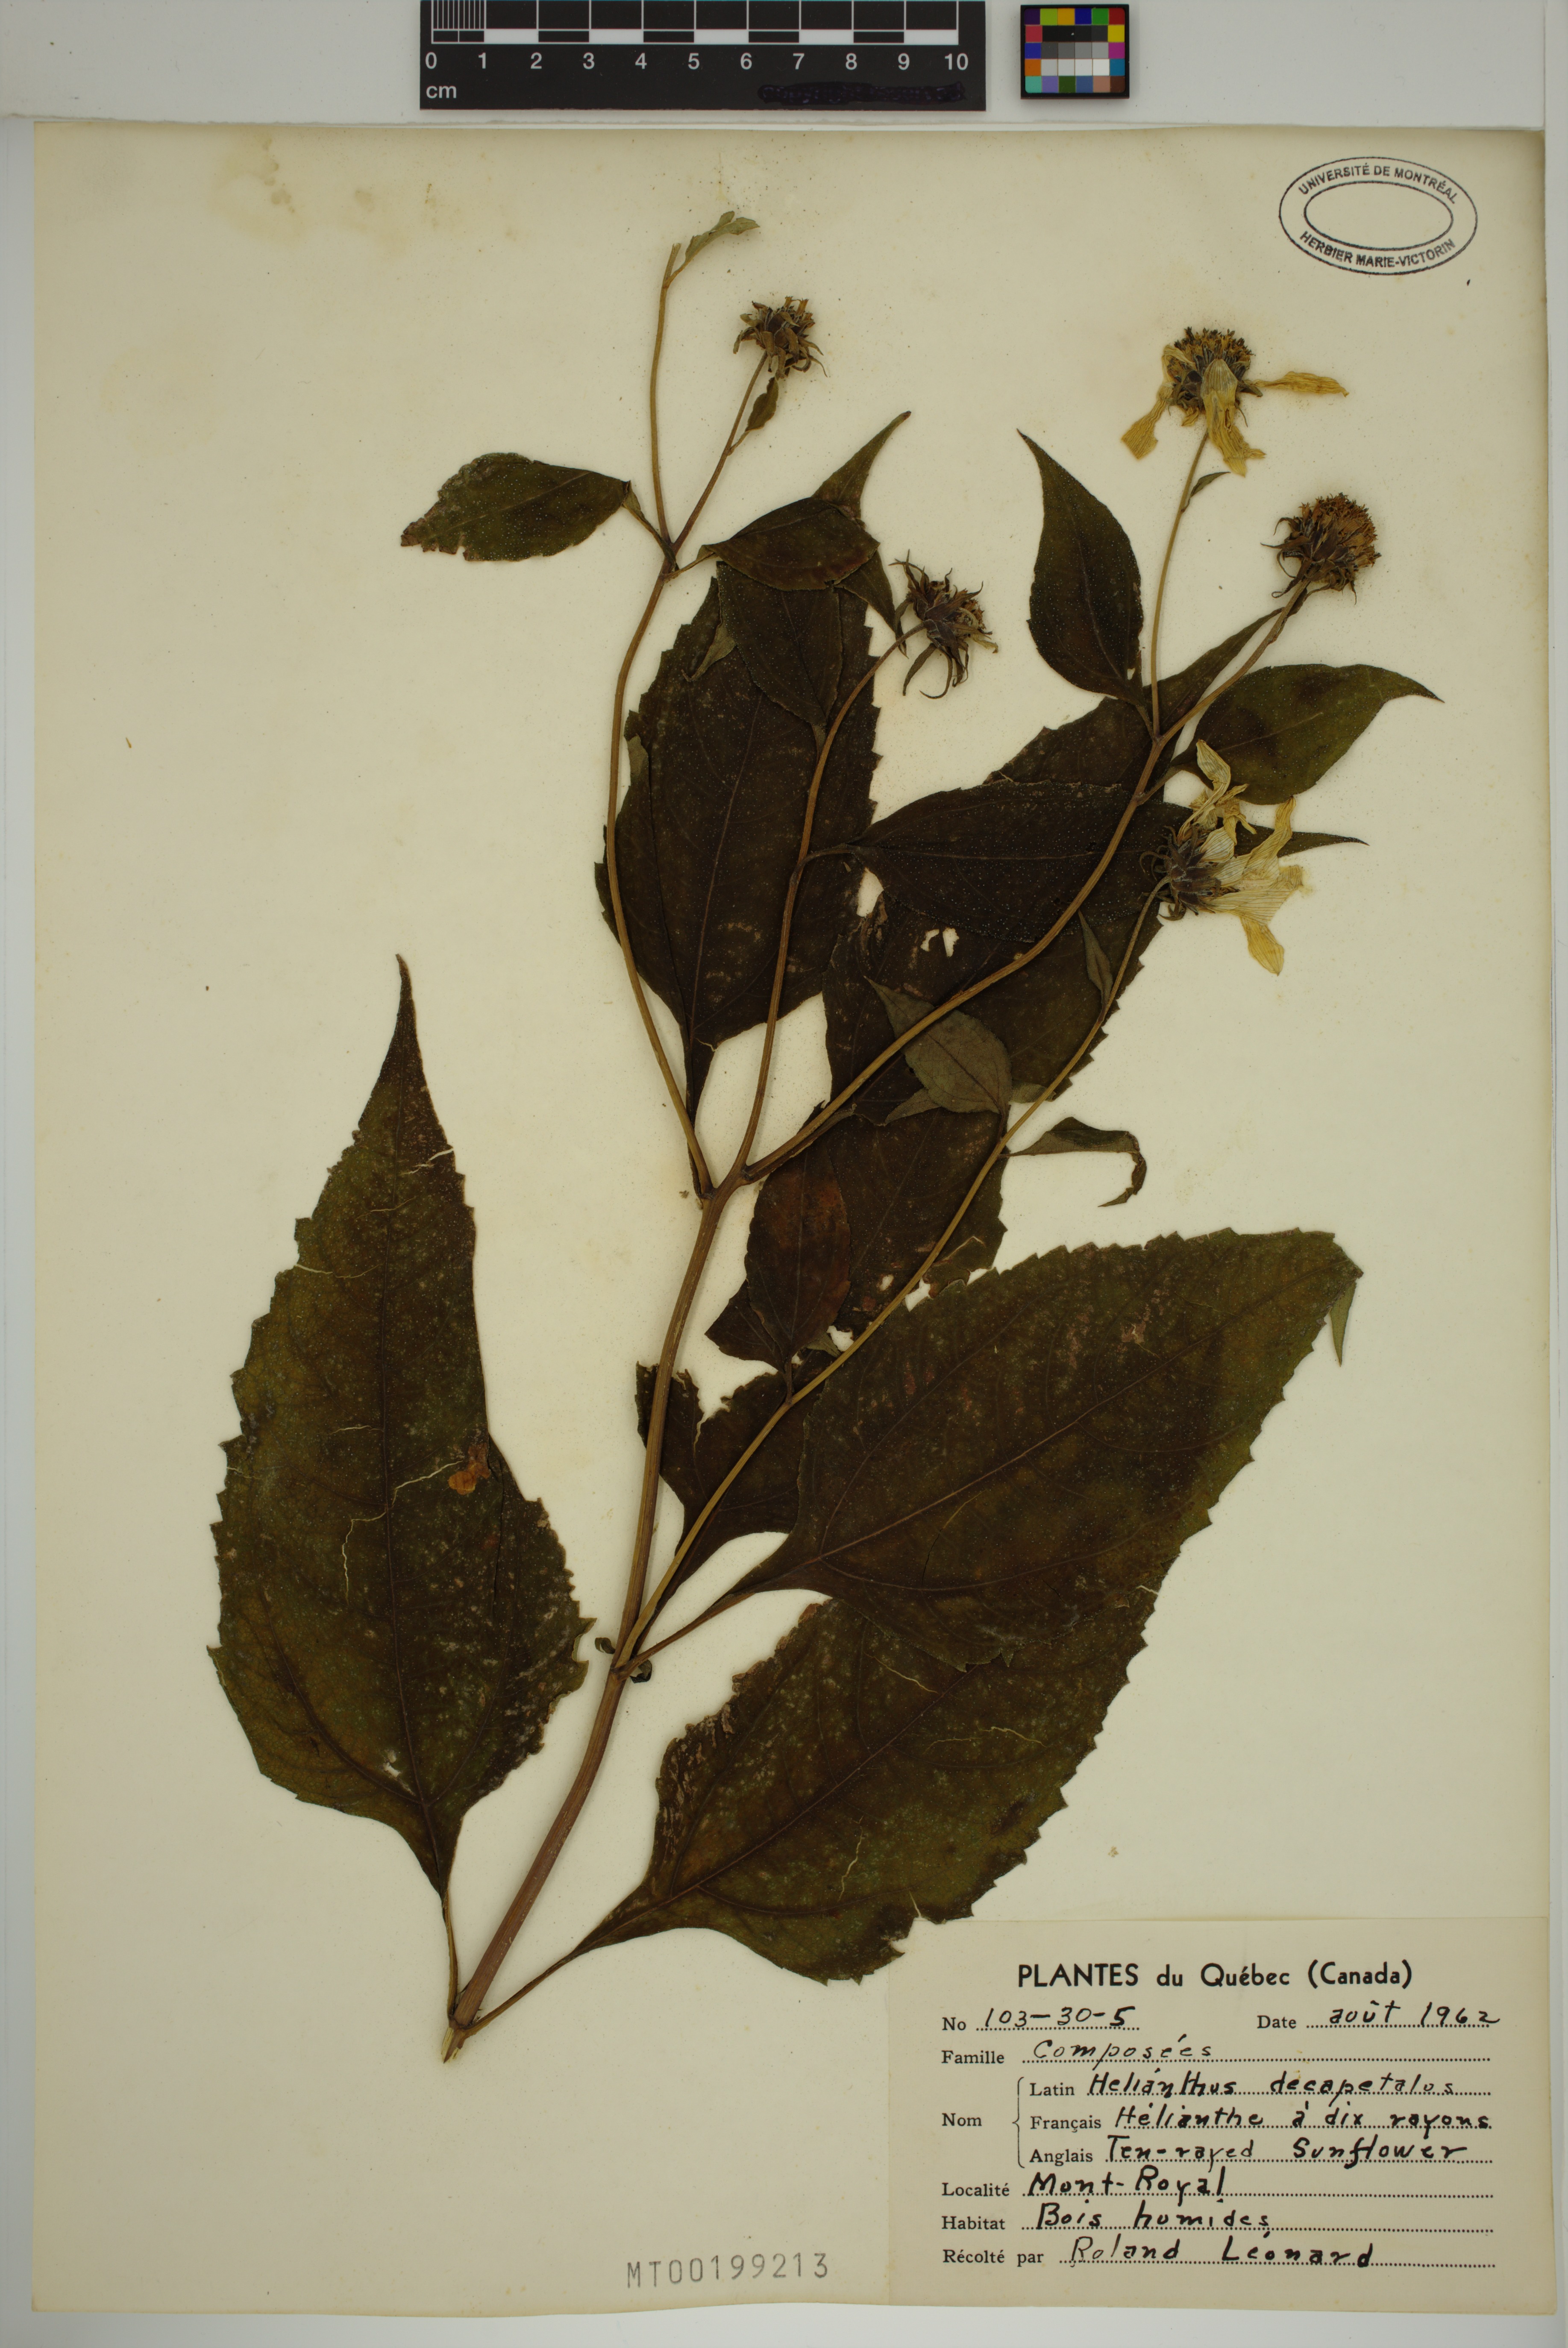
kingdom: Plantae
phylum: Tracheophyta
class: Magnoliopsida
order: Asterales
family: Asteraceae
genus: Helianthus
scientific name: Helianthus decapetalus
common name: Thin-leaved sunflower
